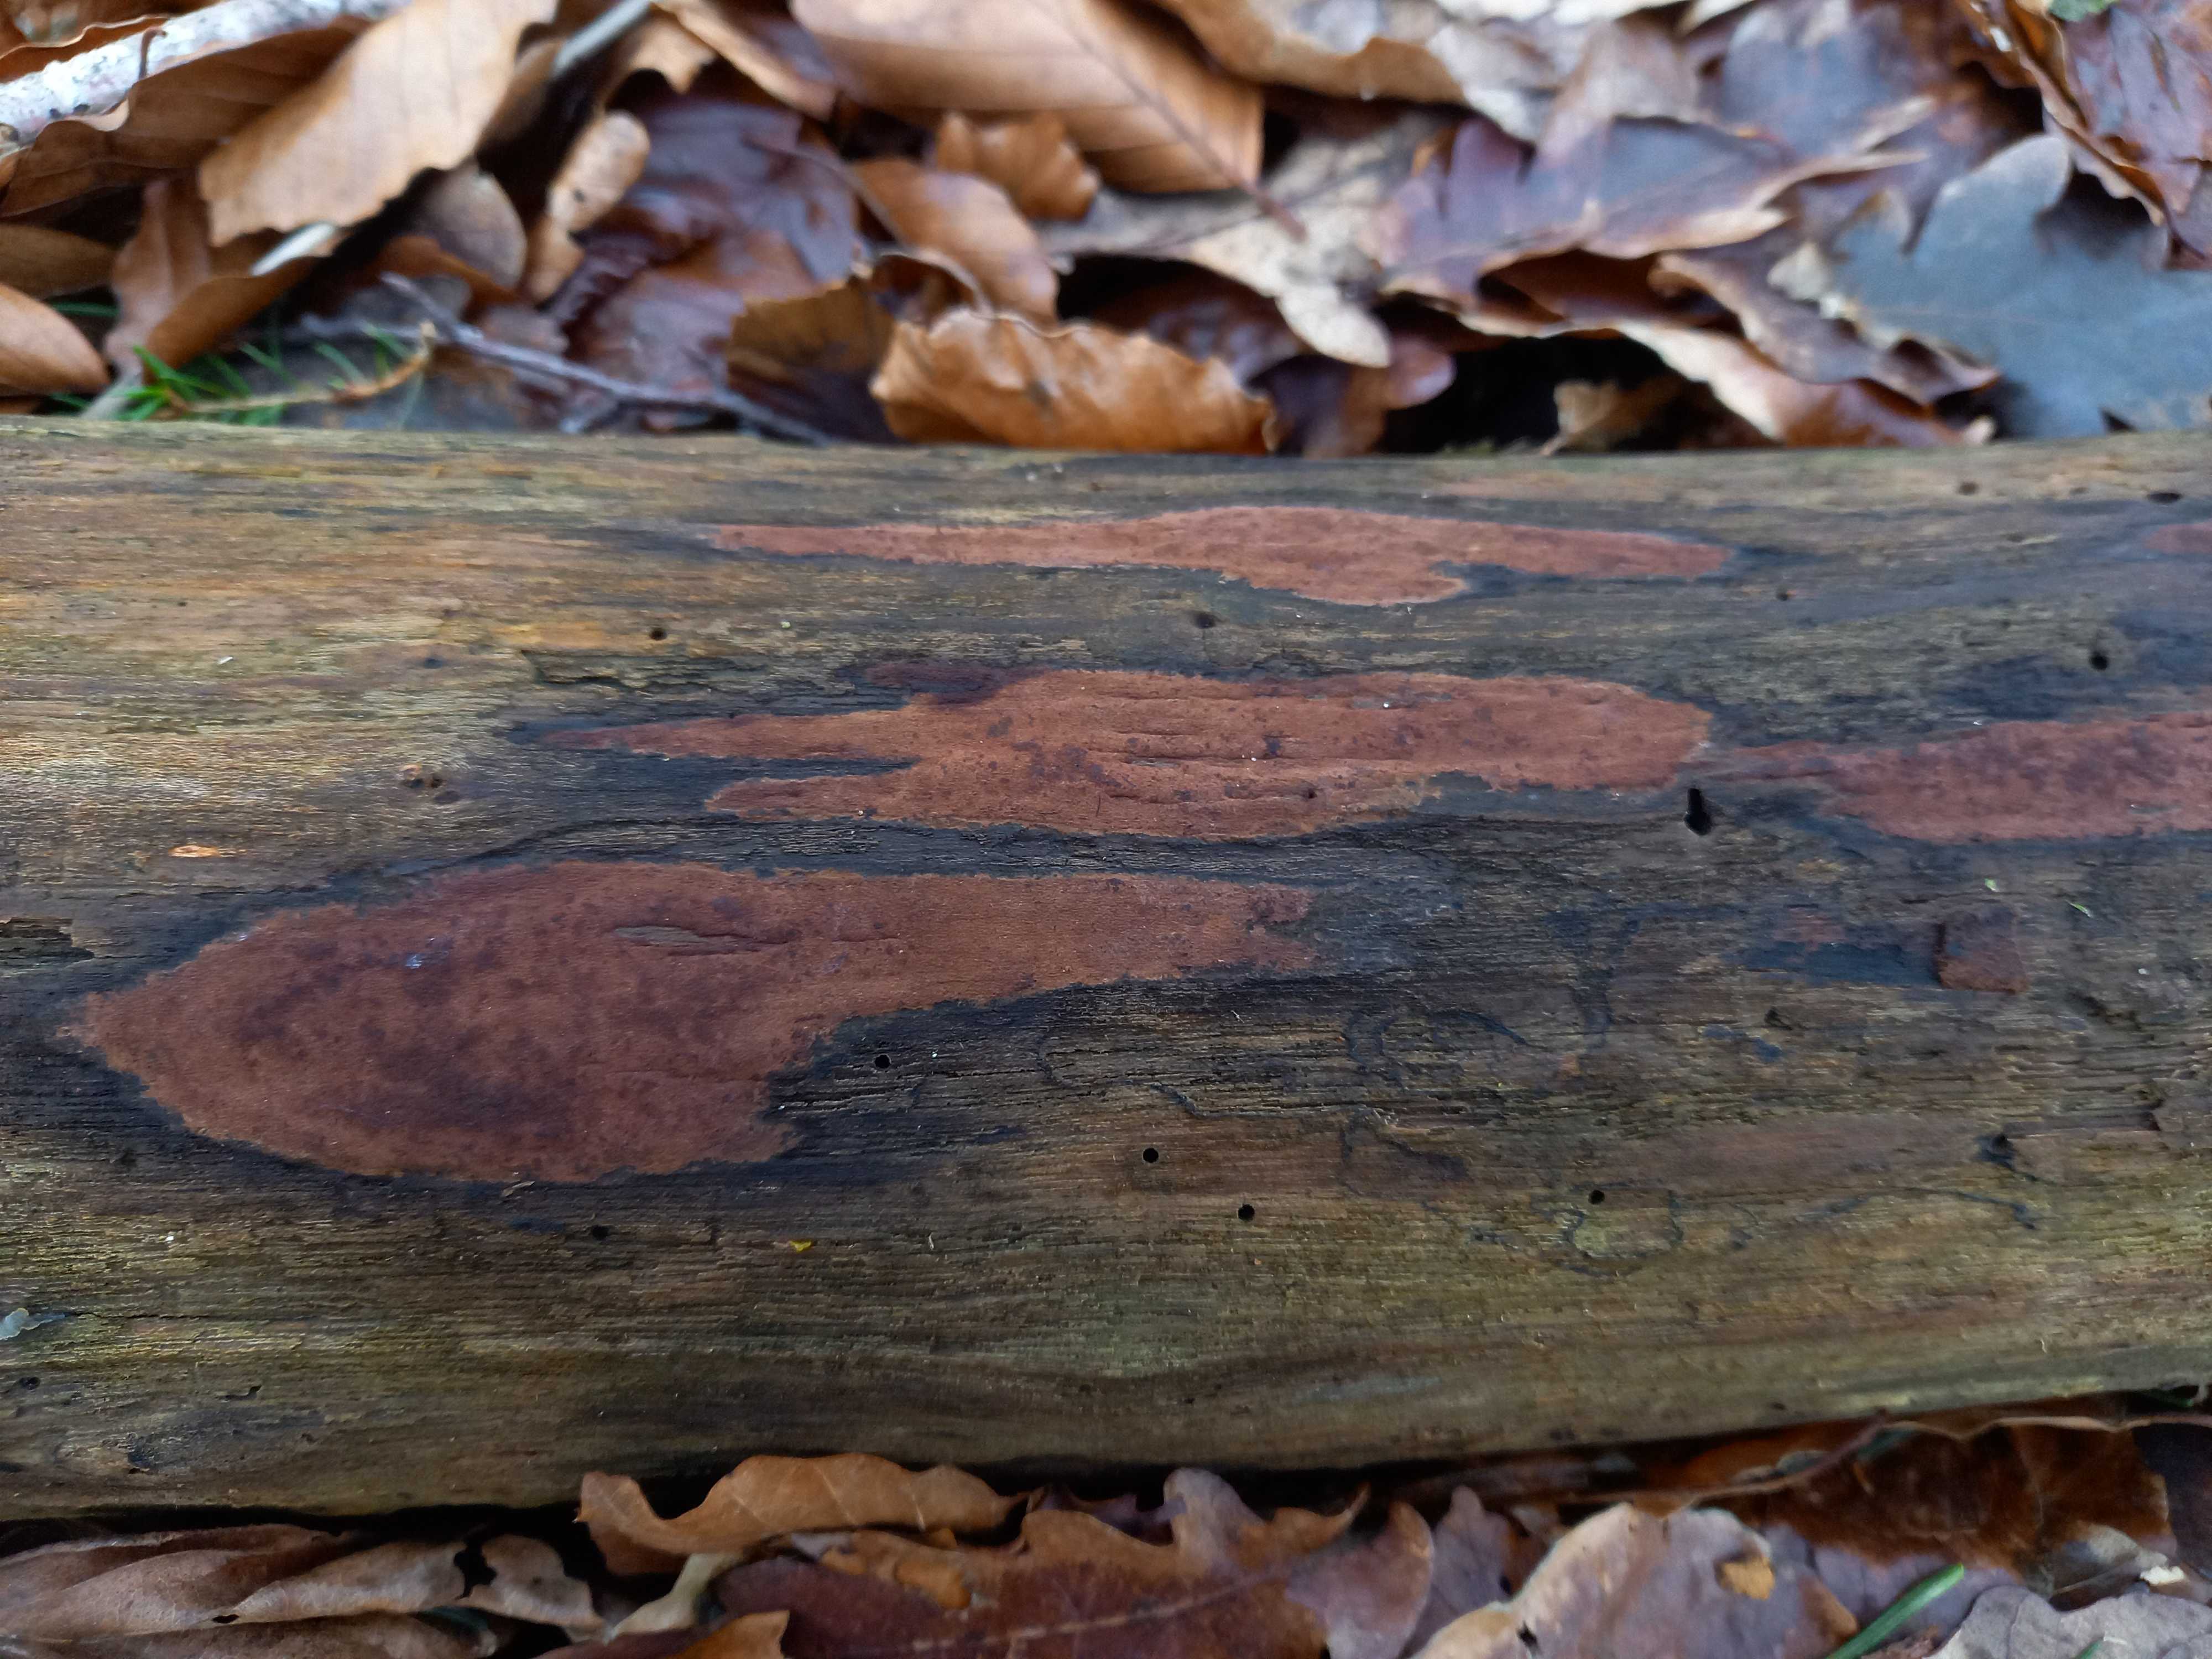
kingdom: Fungi
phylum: Ascomycota
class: Sordariomycetes
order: Xylariales
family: Hypoxylaceae
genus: Hypoxylon
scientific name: Hypoxylon petriniae
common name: nedsænket kulbær
